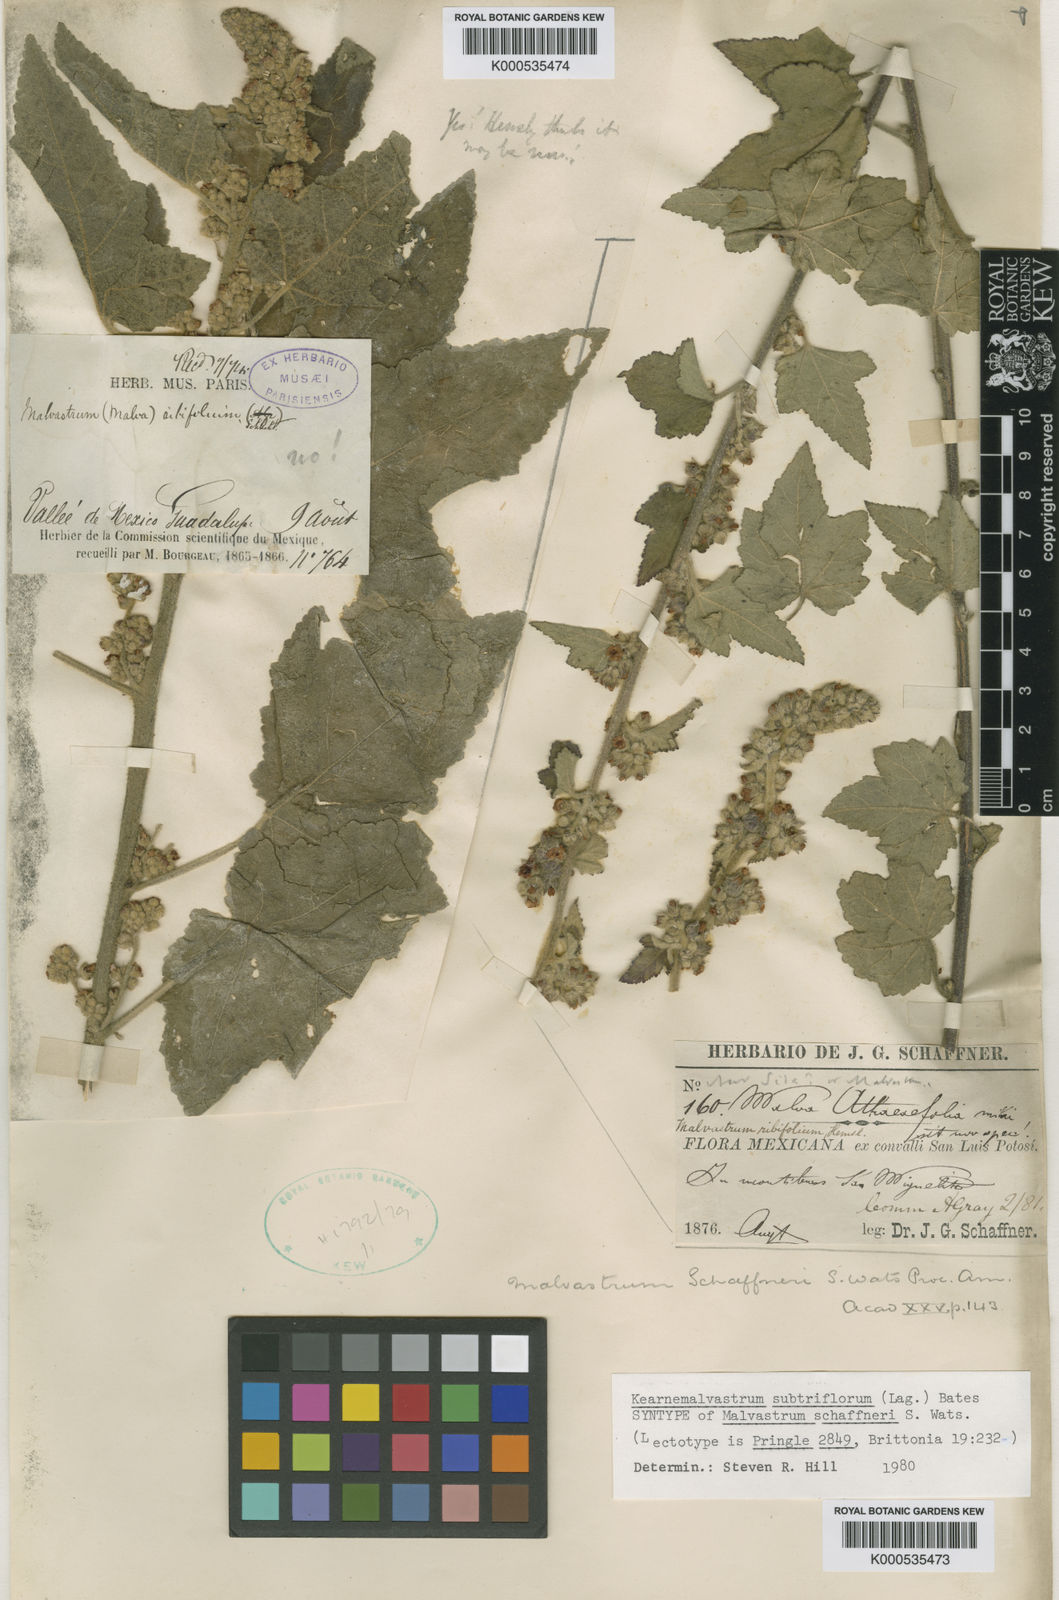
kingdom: Plantae
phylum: Tracheophyta
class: Magnoliopsida
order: Malvales
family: Malvaceae
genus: Kearnemalvastrum
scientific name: Kearnemalvastrum subtriflorum
